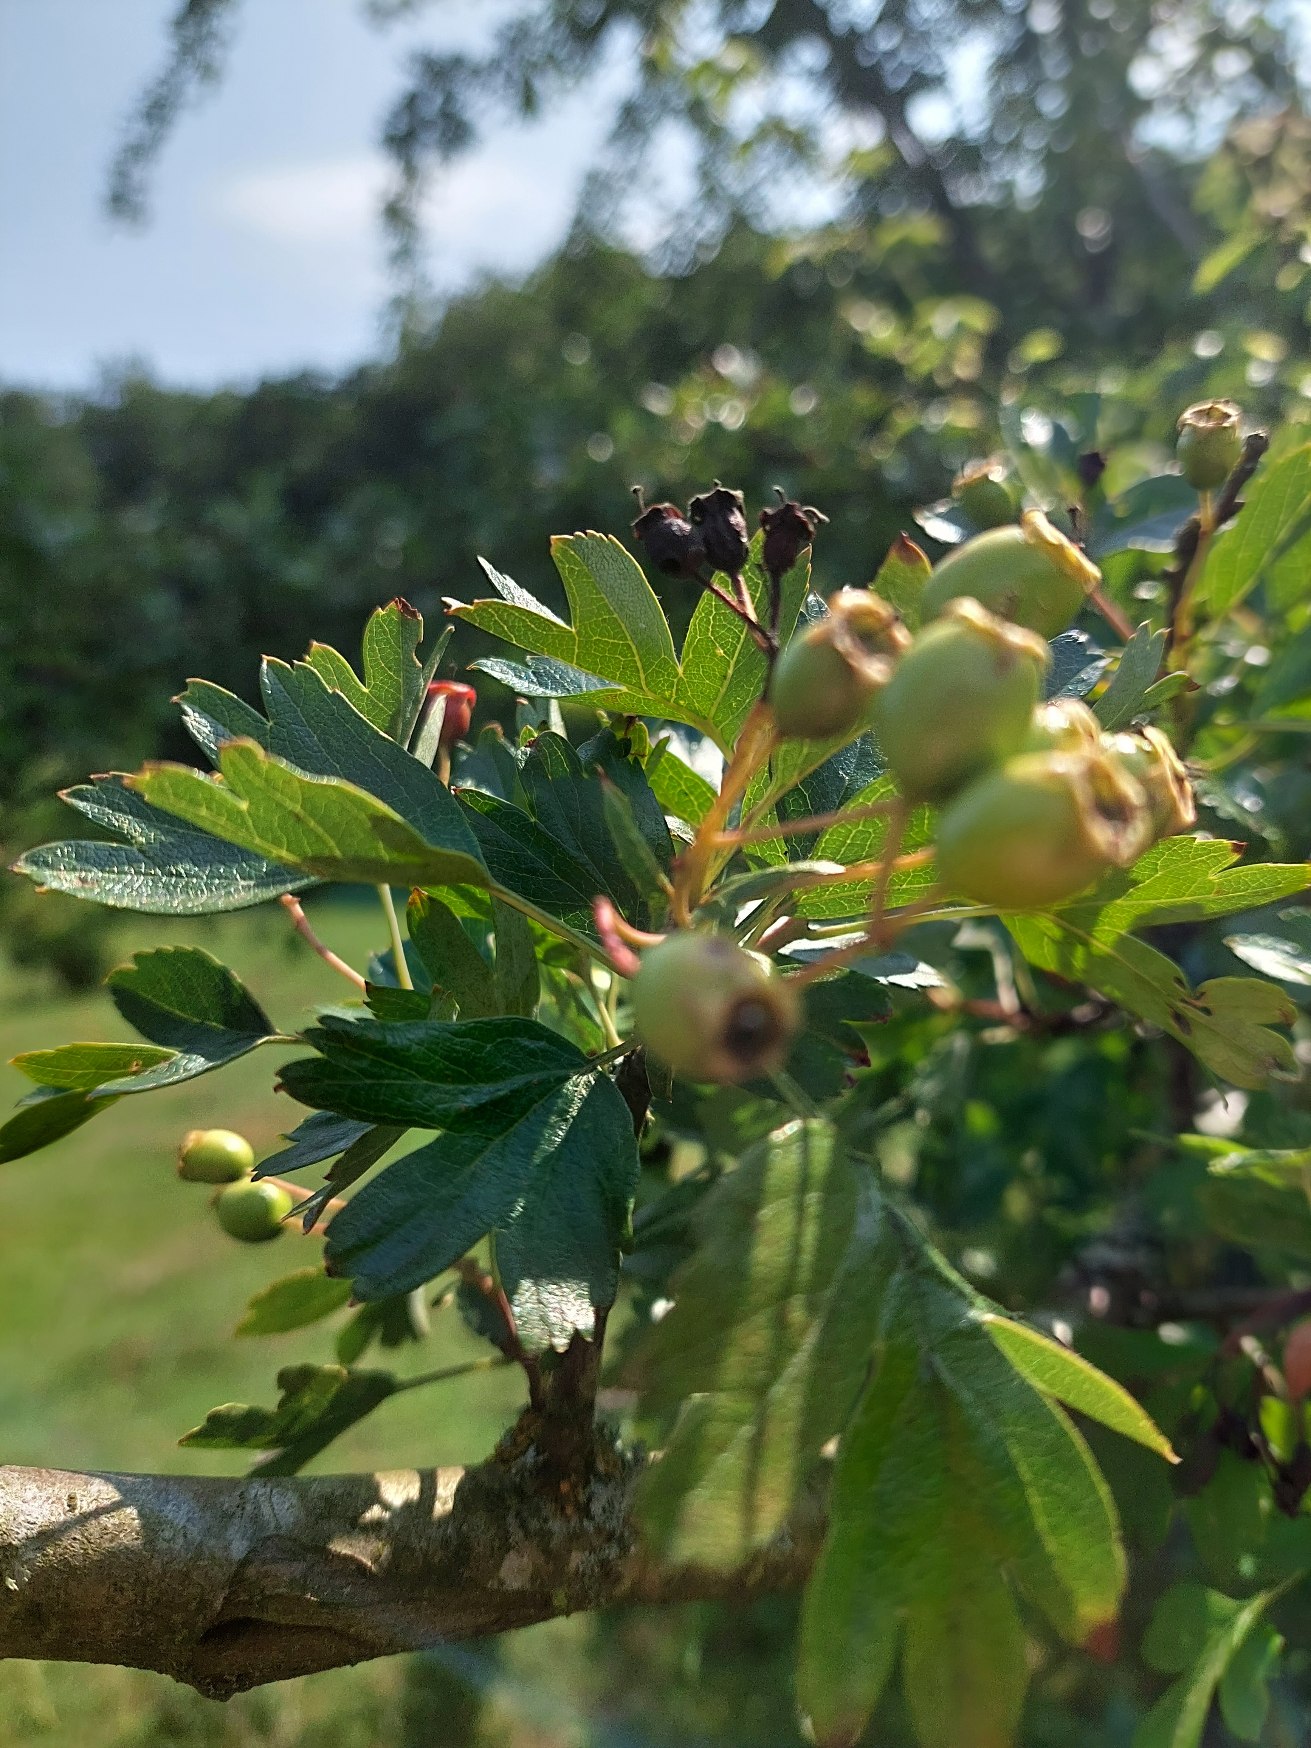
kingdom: Plantae
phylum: Tracheophyta
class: Magnoliopsida
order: Rosales
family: Rosaceae
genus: Crataegus
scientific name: Crataegus monogyna
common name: Engriflet hvidtjørn
